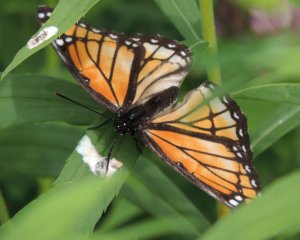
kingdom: Animalia
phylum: Arthropoda
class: Insecta
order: Lepidoptera
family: Nymphalidae
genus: Limenitis
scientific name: Limenitis archippus
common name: Viceroy
